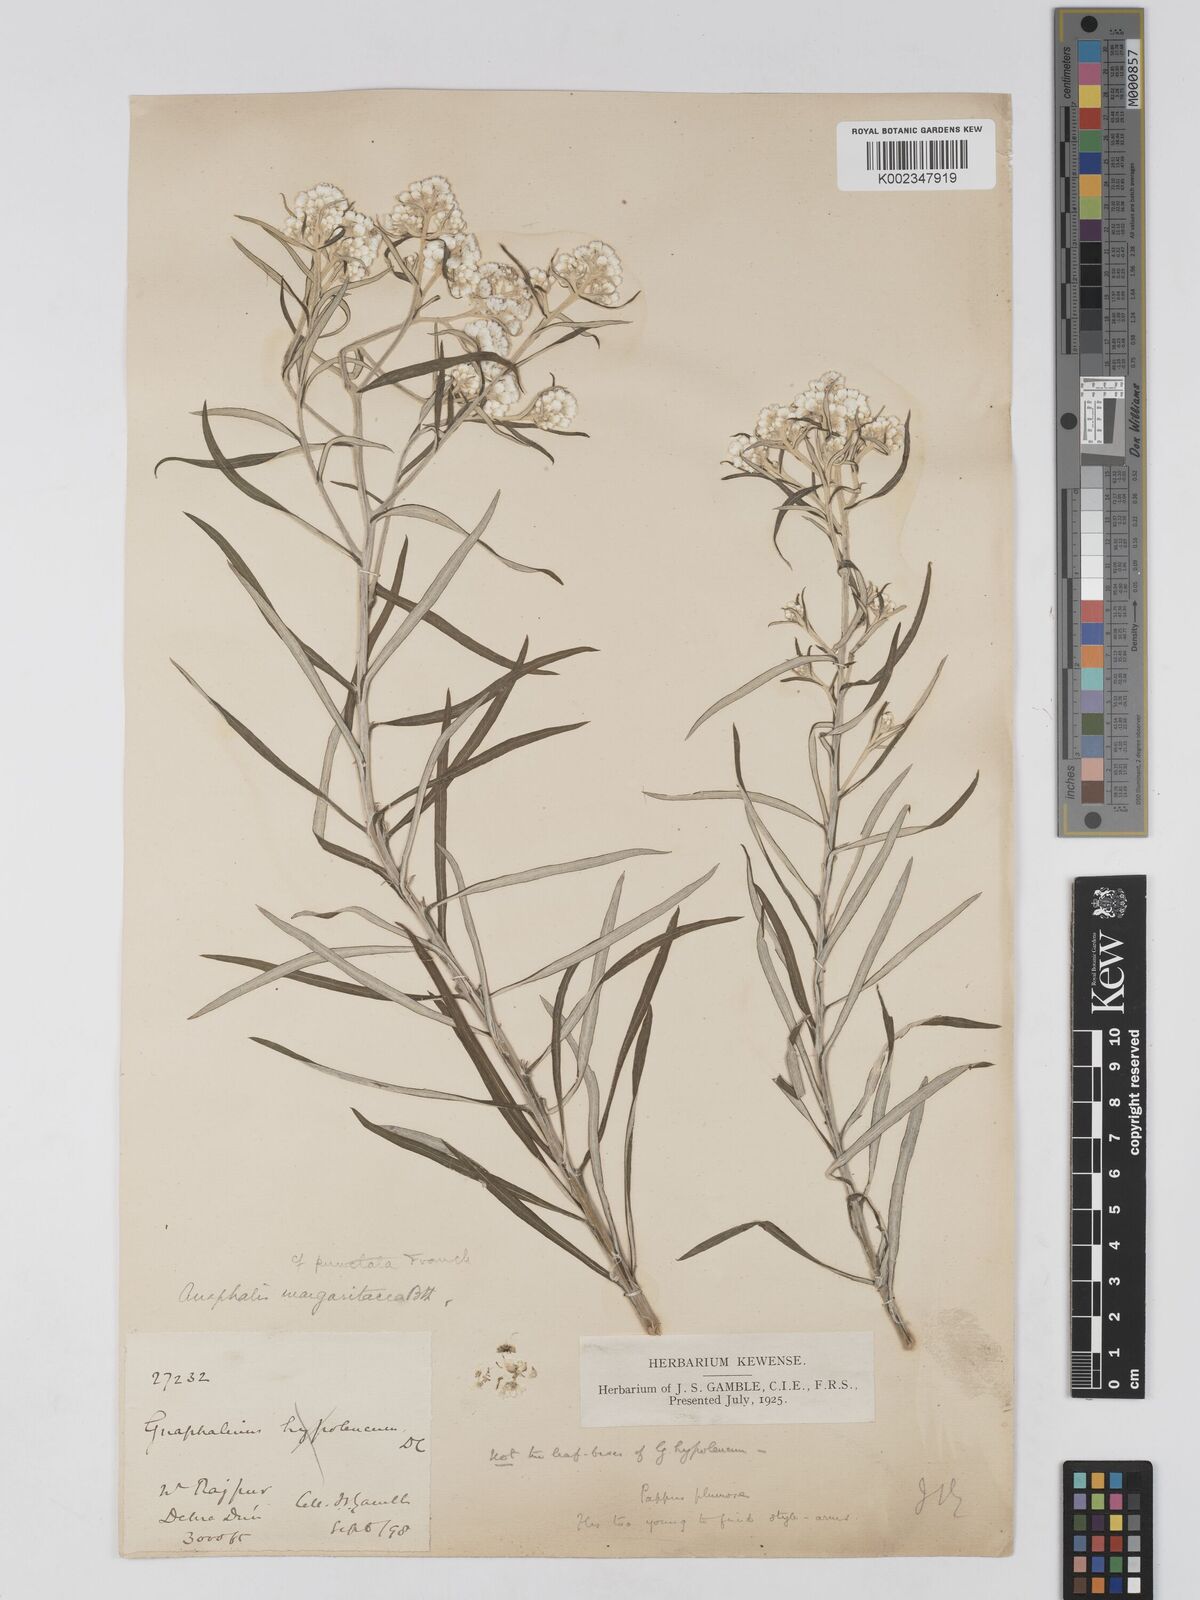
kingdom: Plantae
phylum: Tracheophyta
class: Magnoliopsida
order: Asterales
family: Asteraceae
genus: Anaphalis
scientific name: Anaphalis
